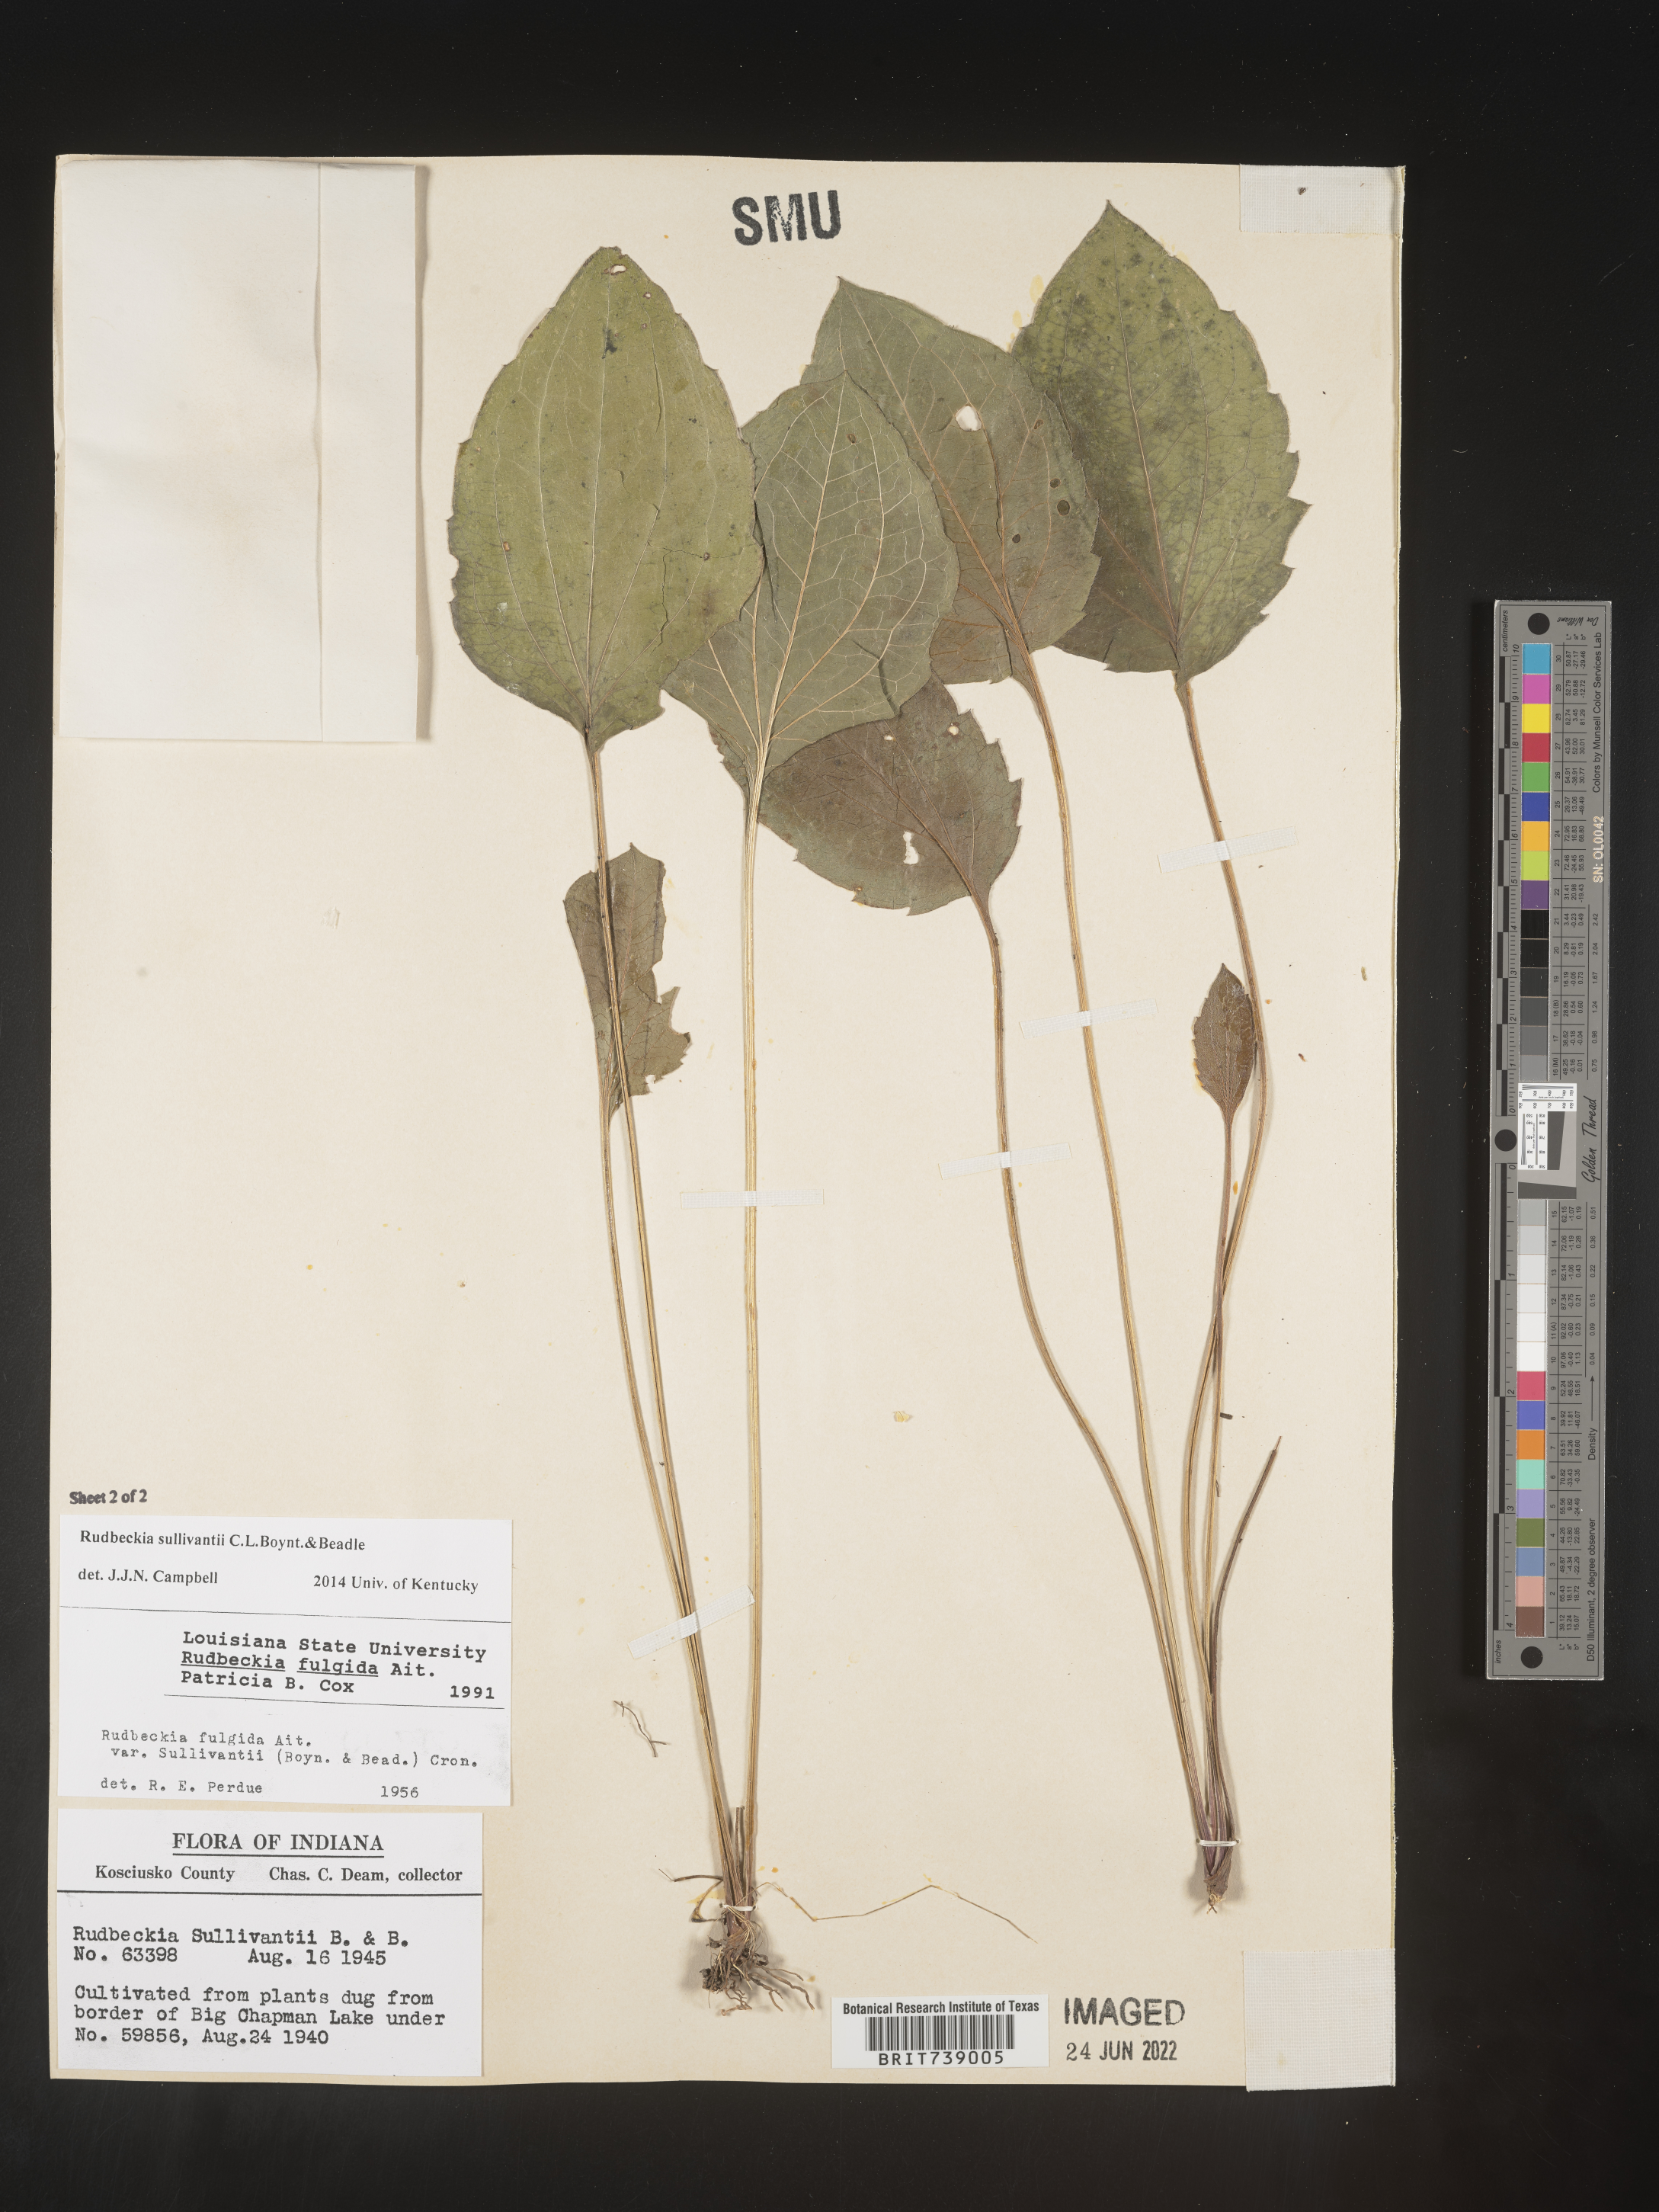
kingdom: Plantae
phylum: Tracheophyta
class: Magnoliopsida
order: Asterales
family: Asteraceae
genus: Rudbeckia
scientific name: Rudbeckia fulgida
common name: Perennial coneflower
